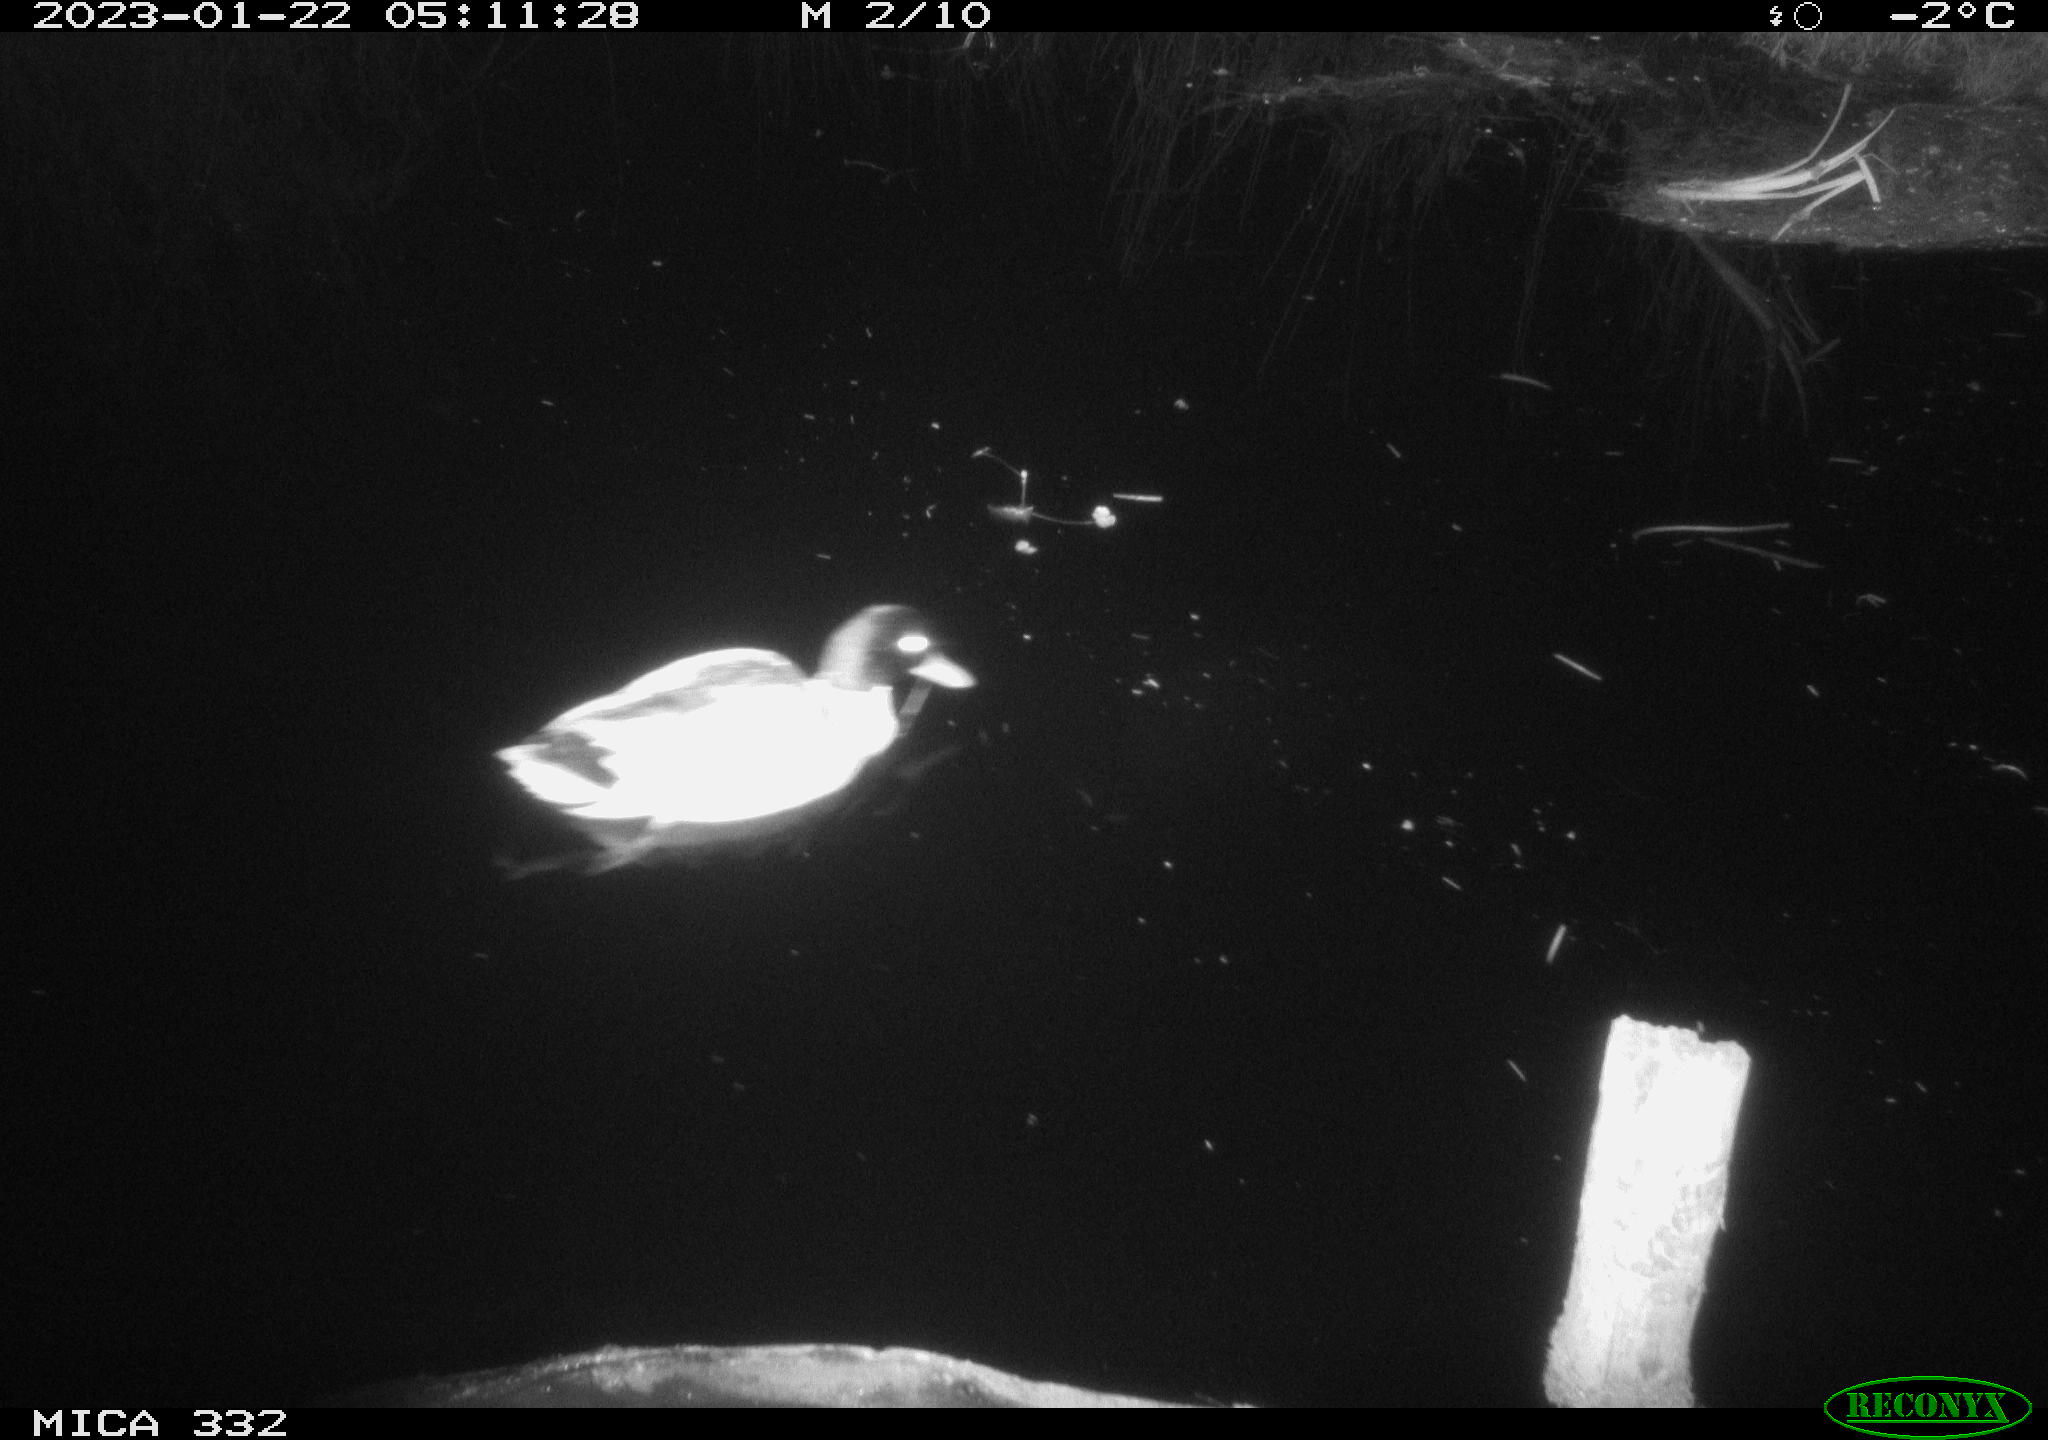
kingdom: Animalia
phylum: Chordata
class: Aves
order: Anseriformes
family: Anatidae
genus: Anas
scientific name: Anas
